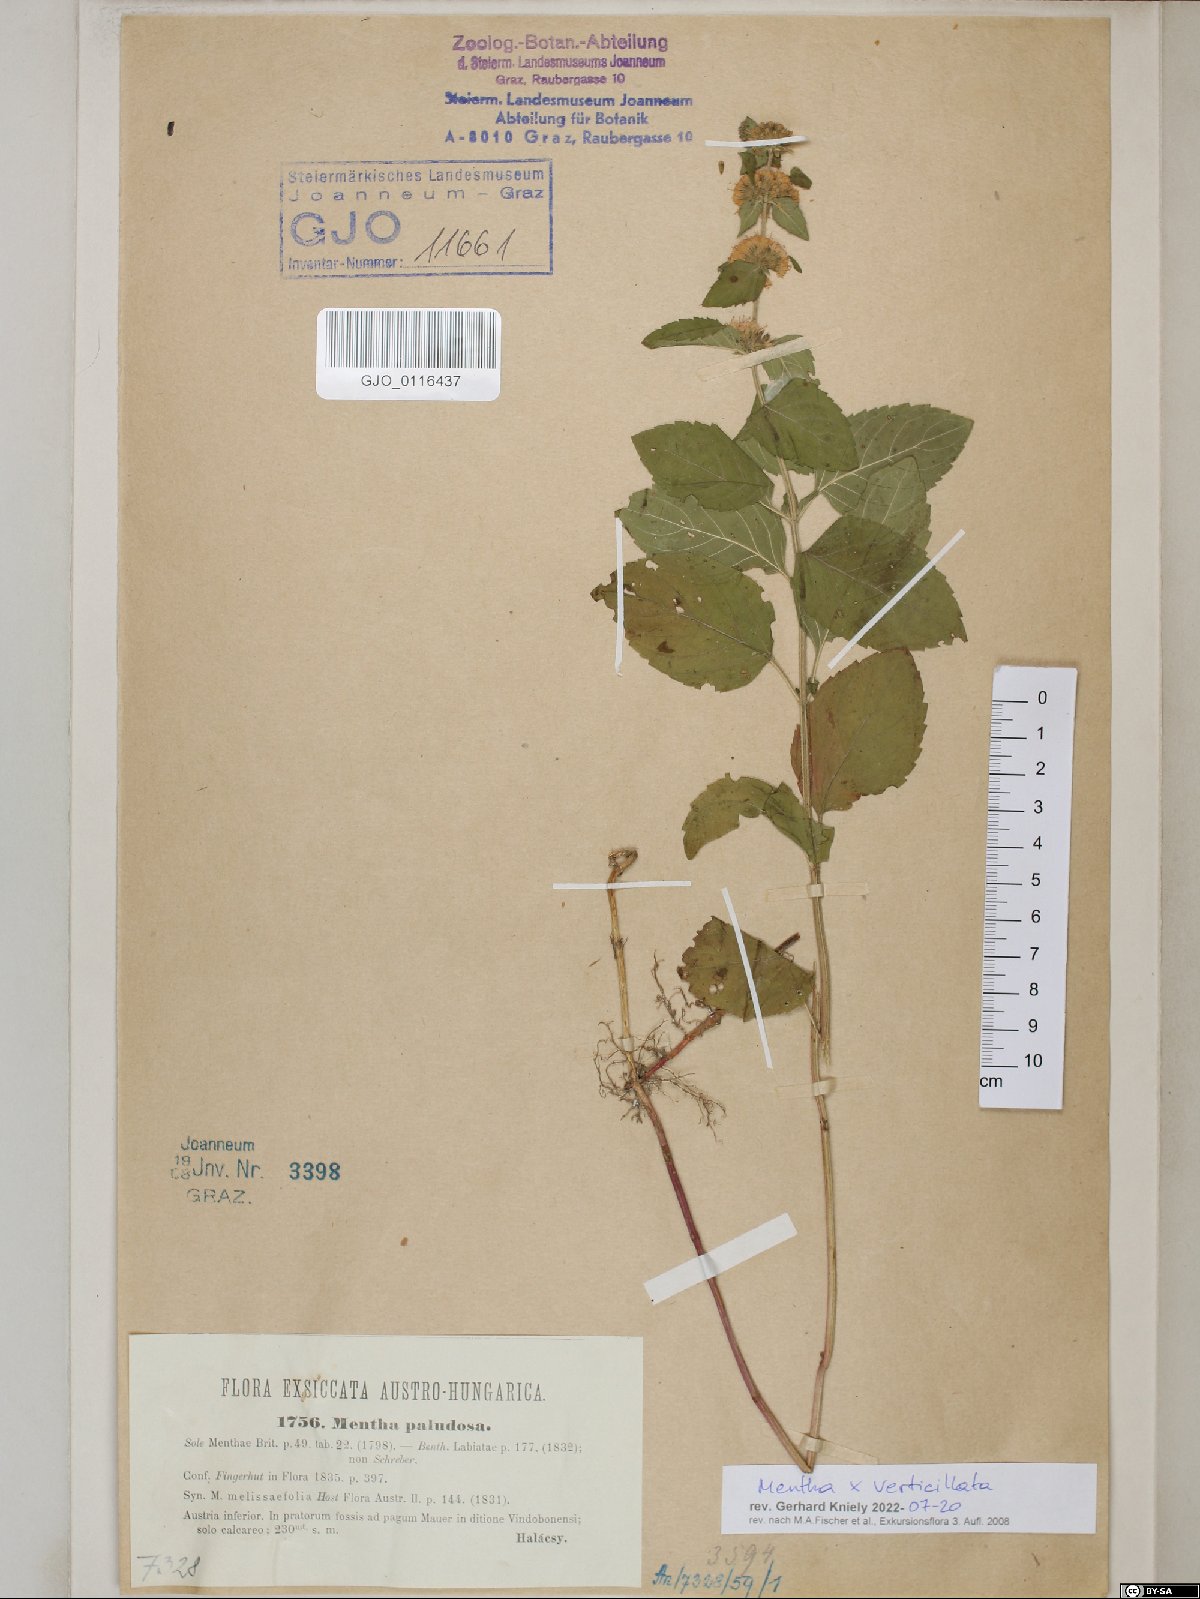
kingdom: Plantae
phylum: Tracheophyta
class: Magnoliopsida
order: Lamiales
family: Lamiaceae
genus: Mentha
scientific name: Mentha verticillata
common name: Mint
